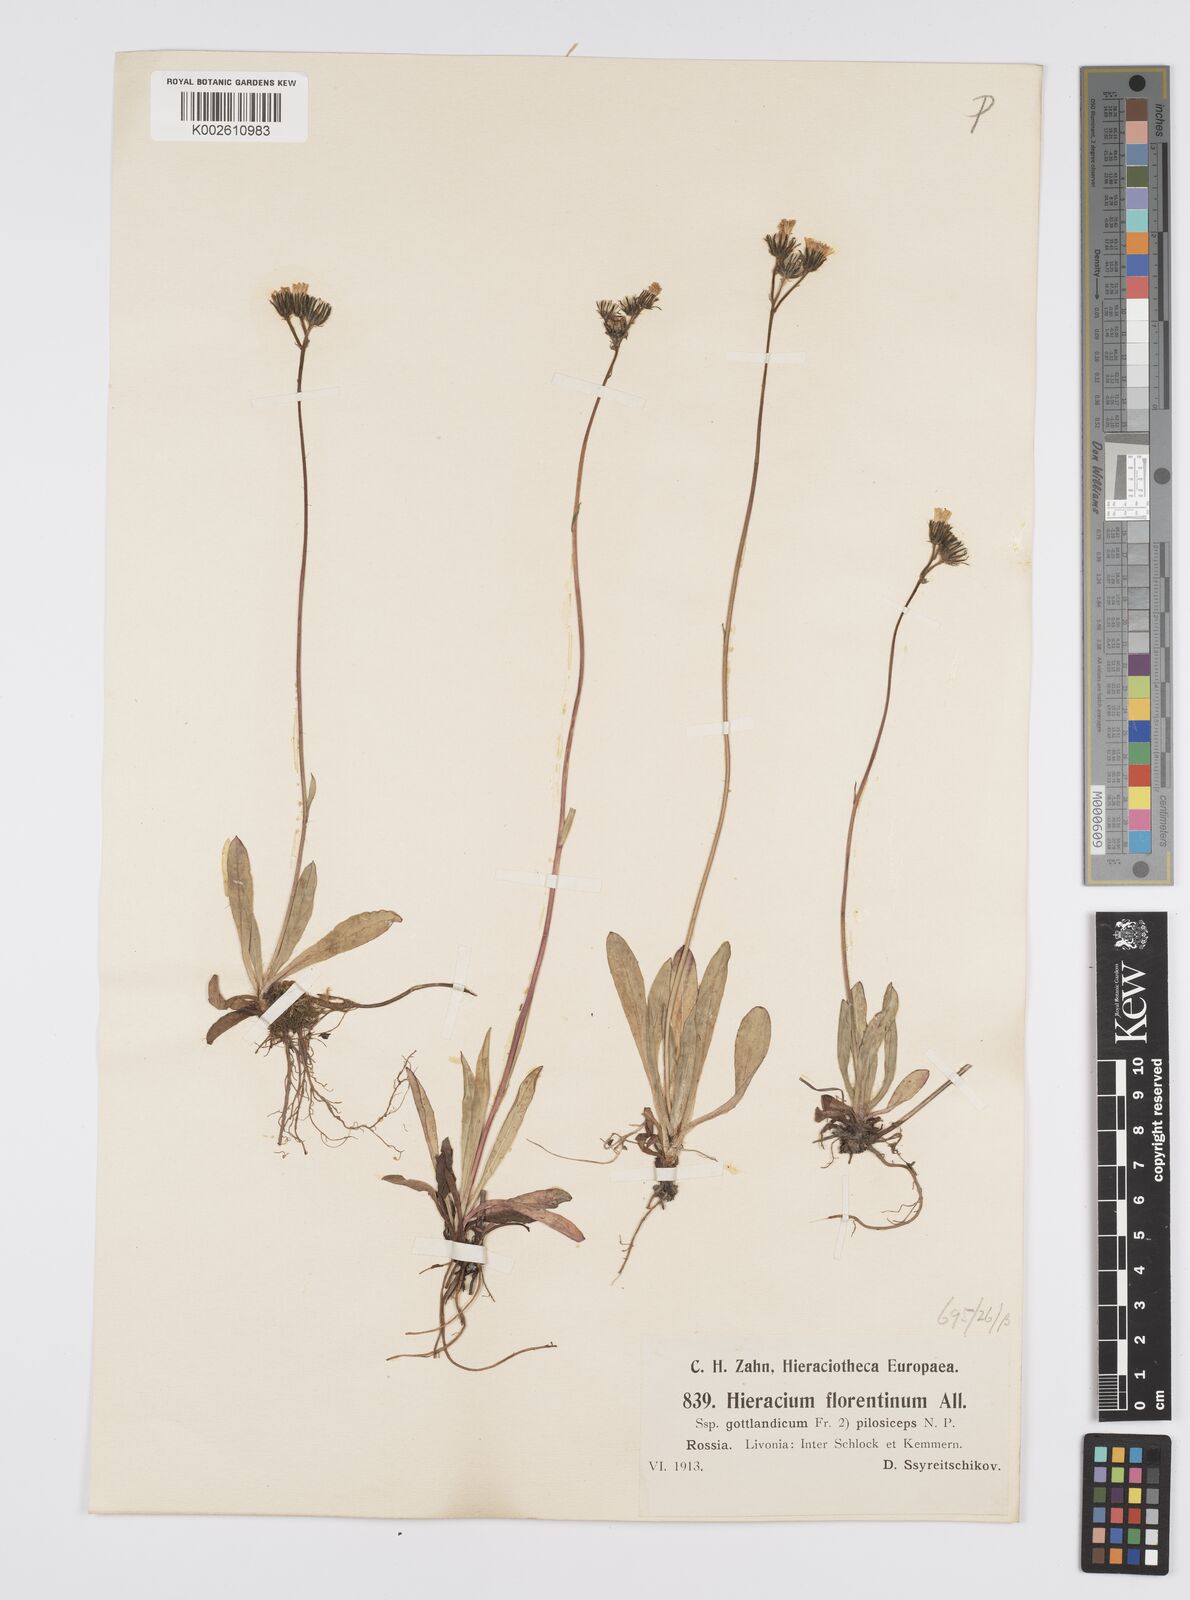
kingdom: Plantae
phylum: Tracheophyta
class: Magnoliopsida
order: Asterales
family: Asteraceae
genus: Pilosella
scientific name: Pilosella piloselloides
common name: Glaucous king-devil
